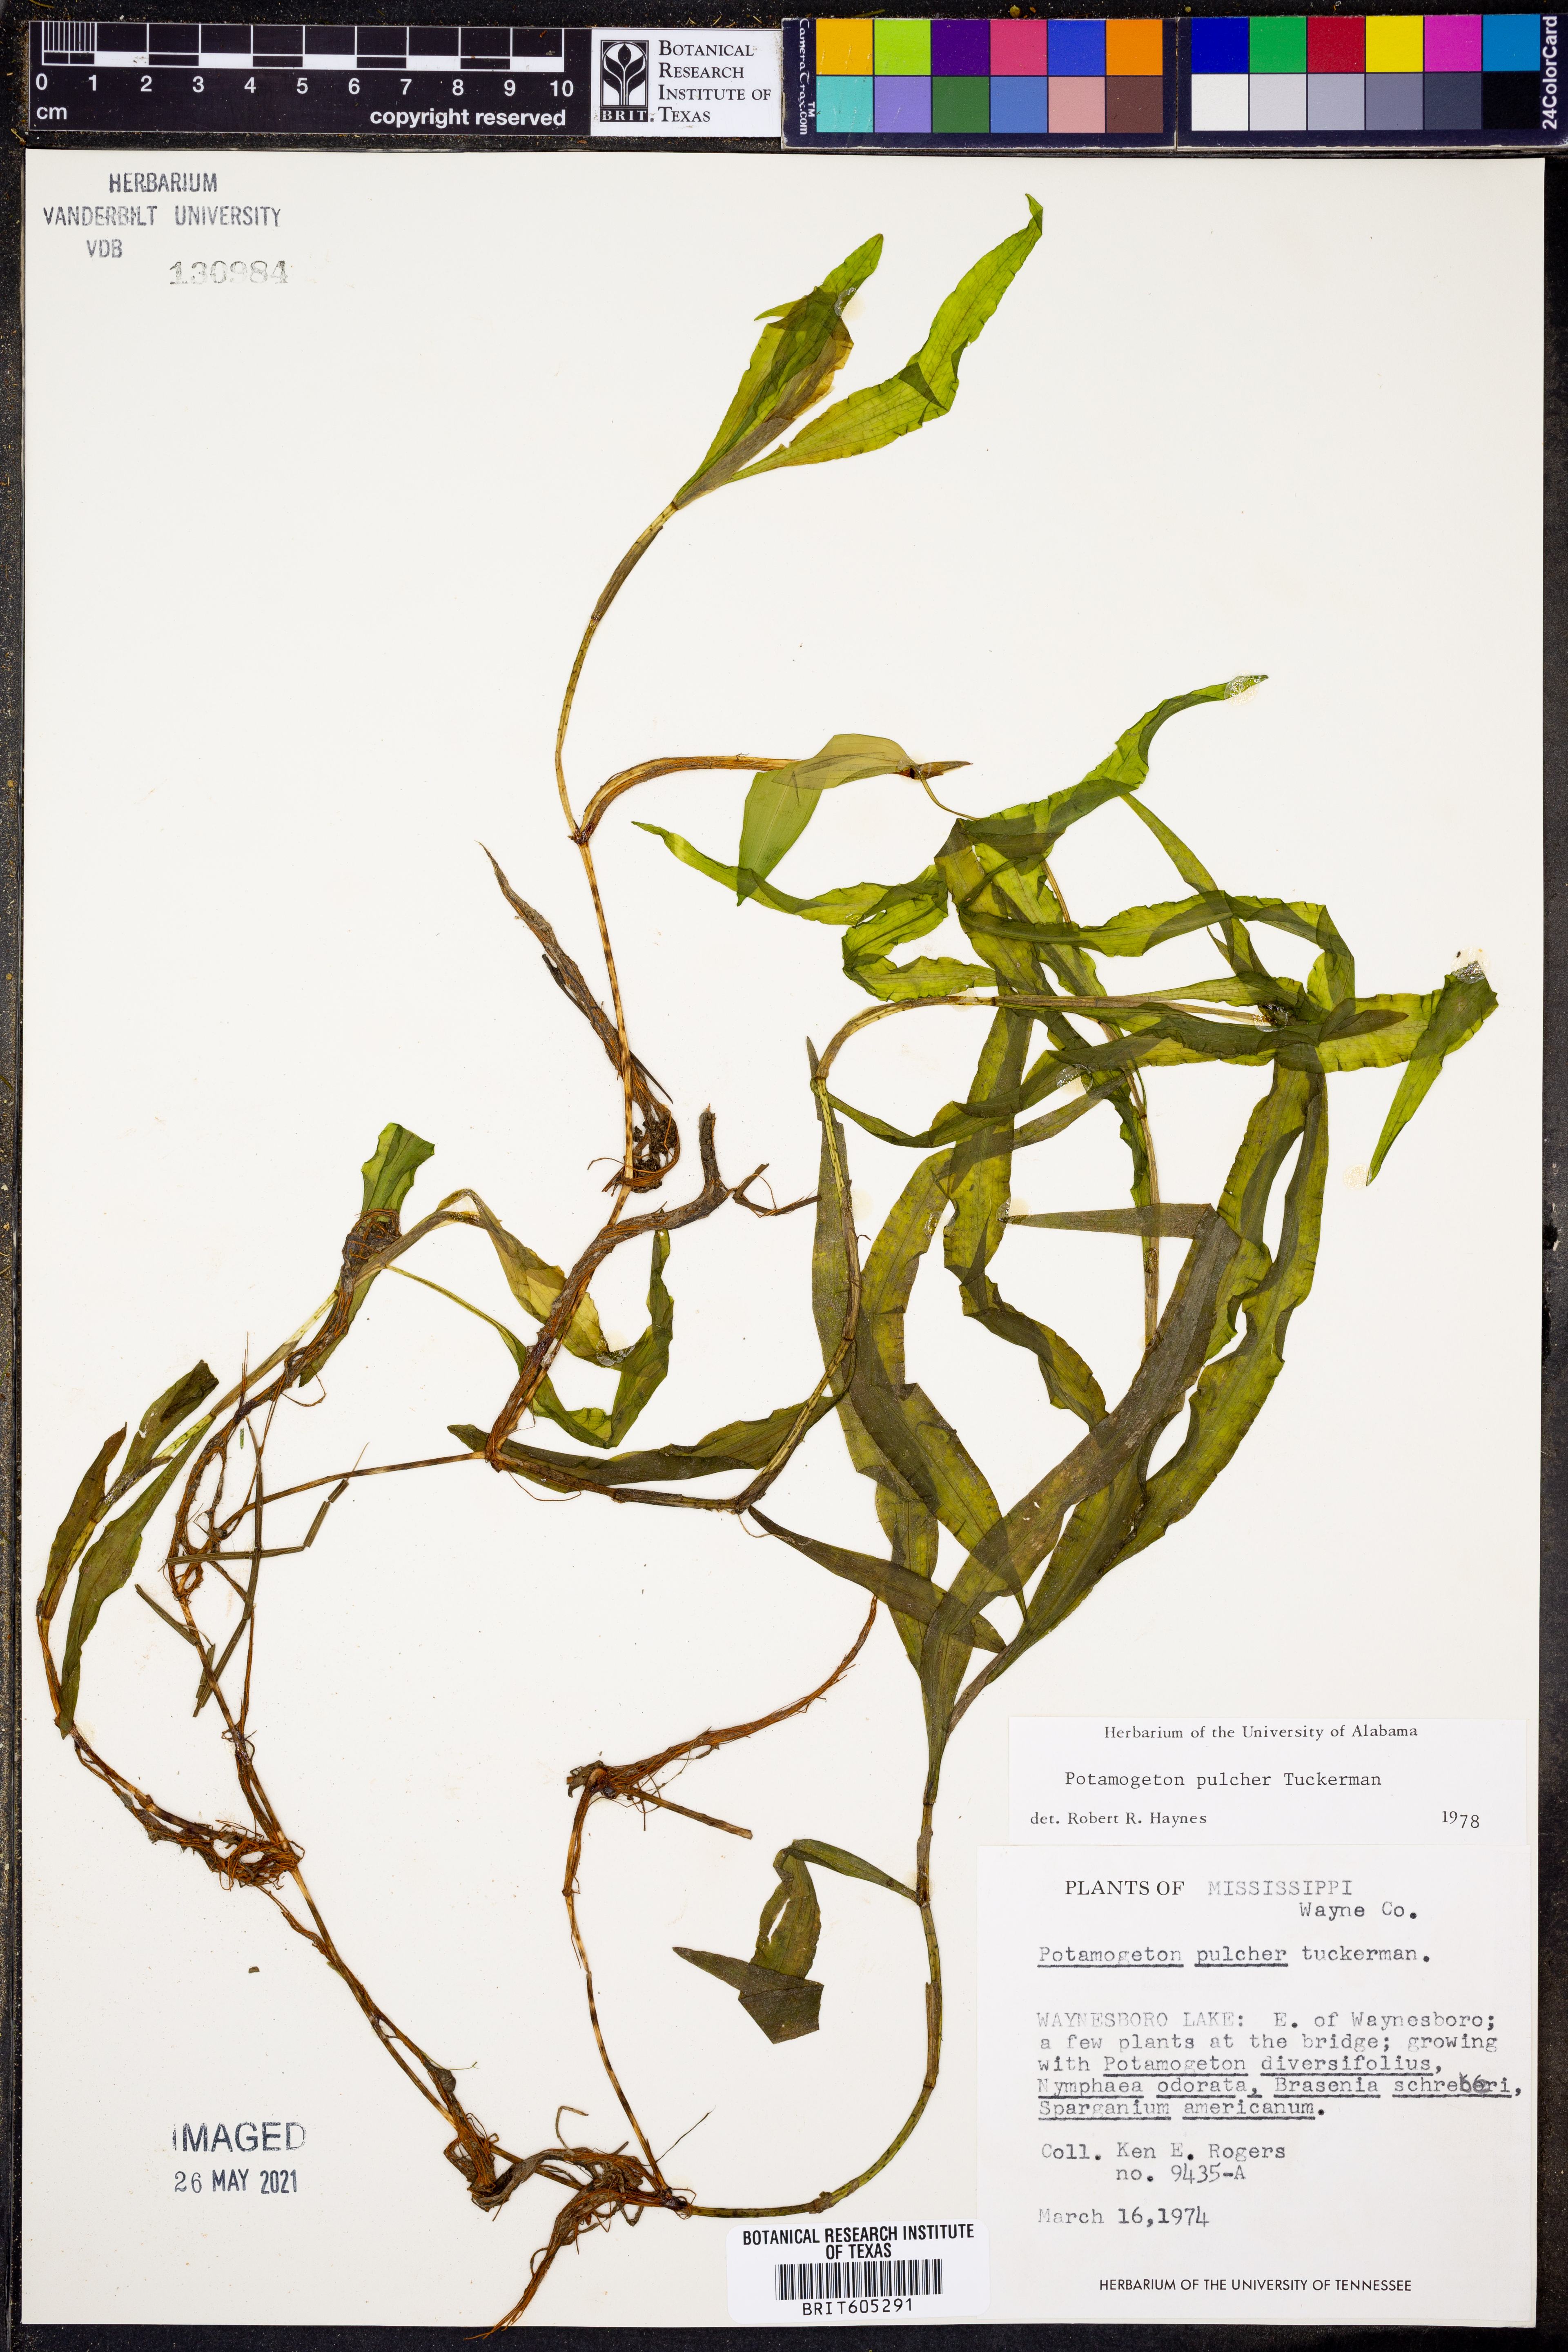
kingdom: Plantae
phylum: Tracheophyta
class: Liliopsida
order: Alismatales
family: Potamogetonaceae
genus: Potamogeton
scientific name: Potamogeton pulcher
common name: Heart-leaved pondweed
